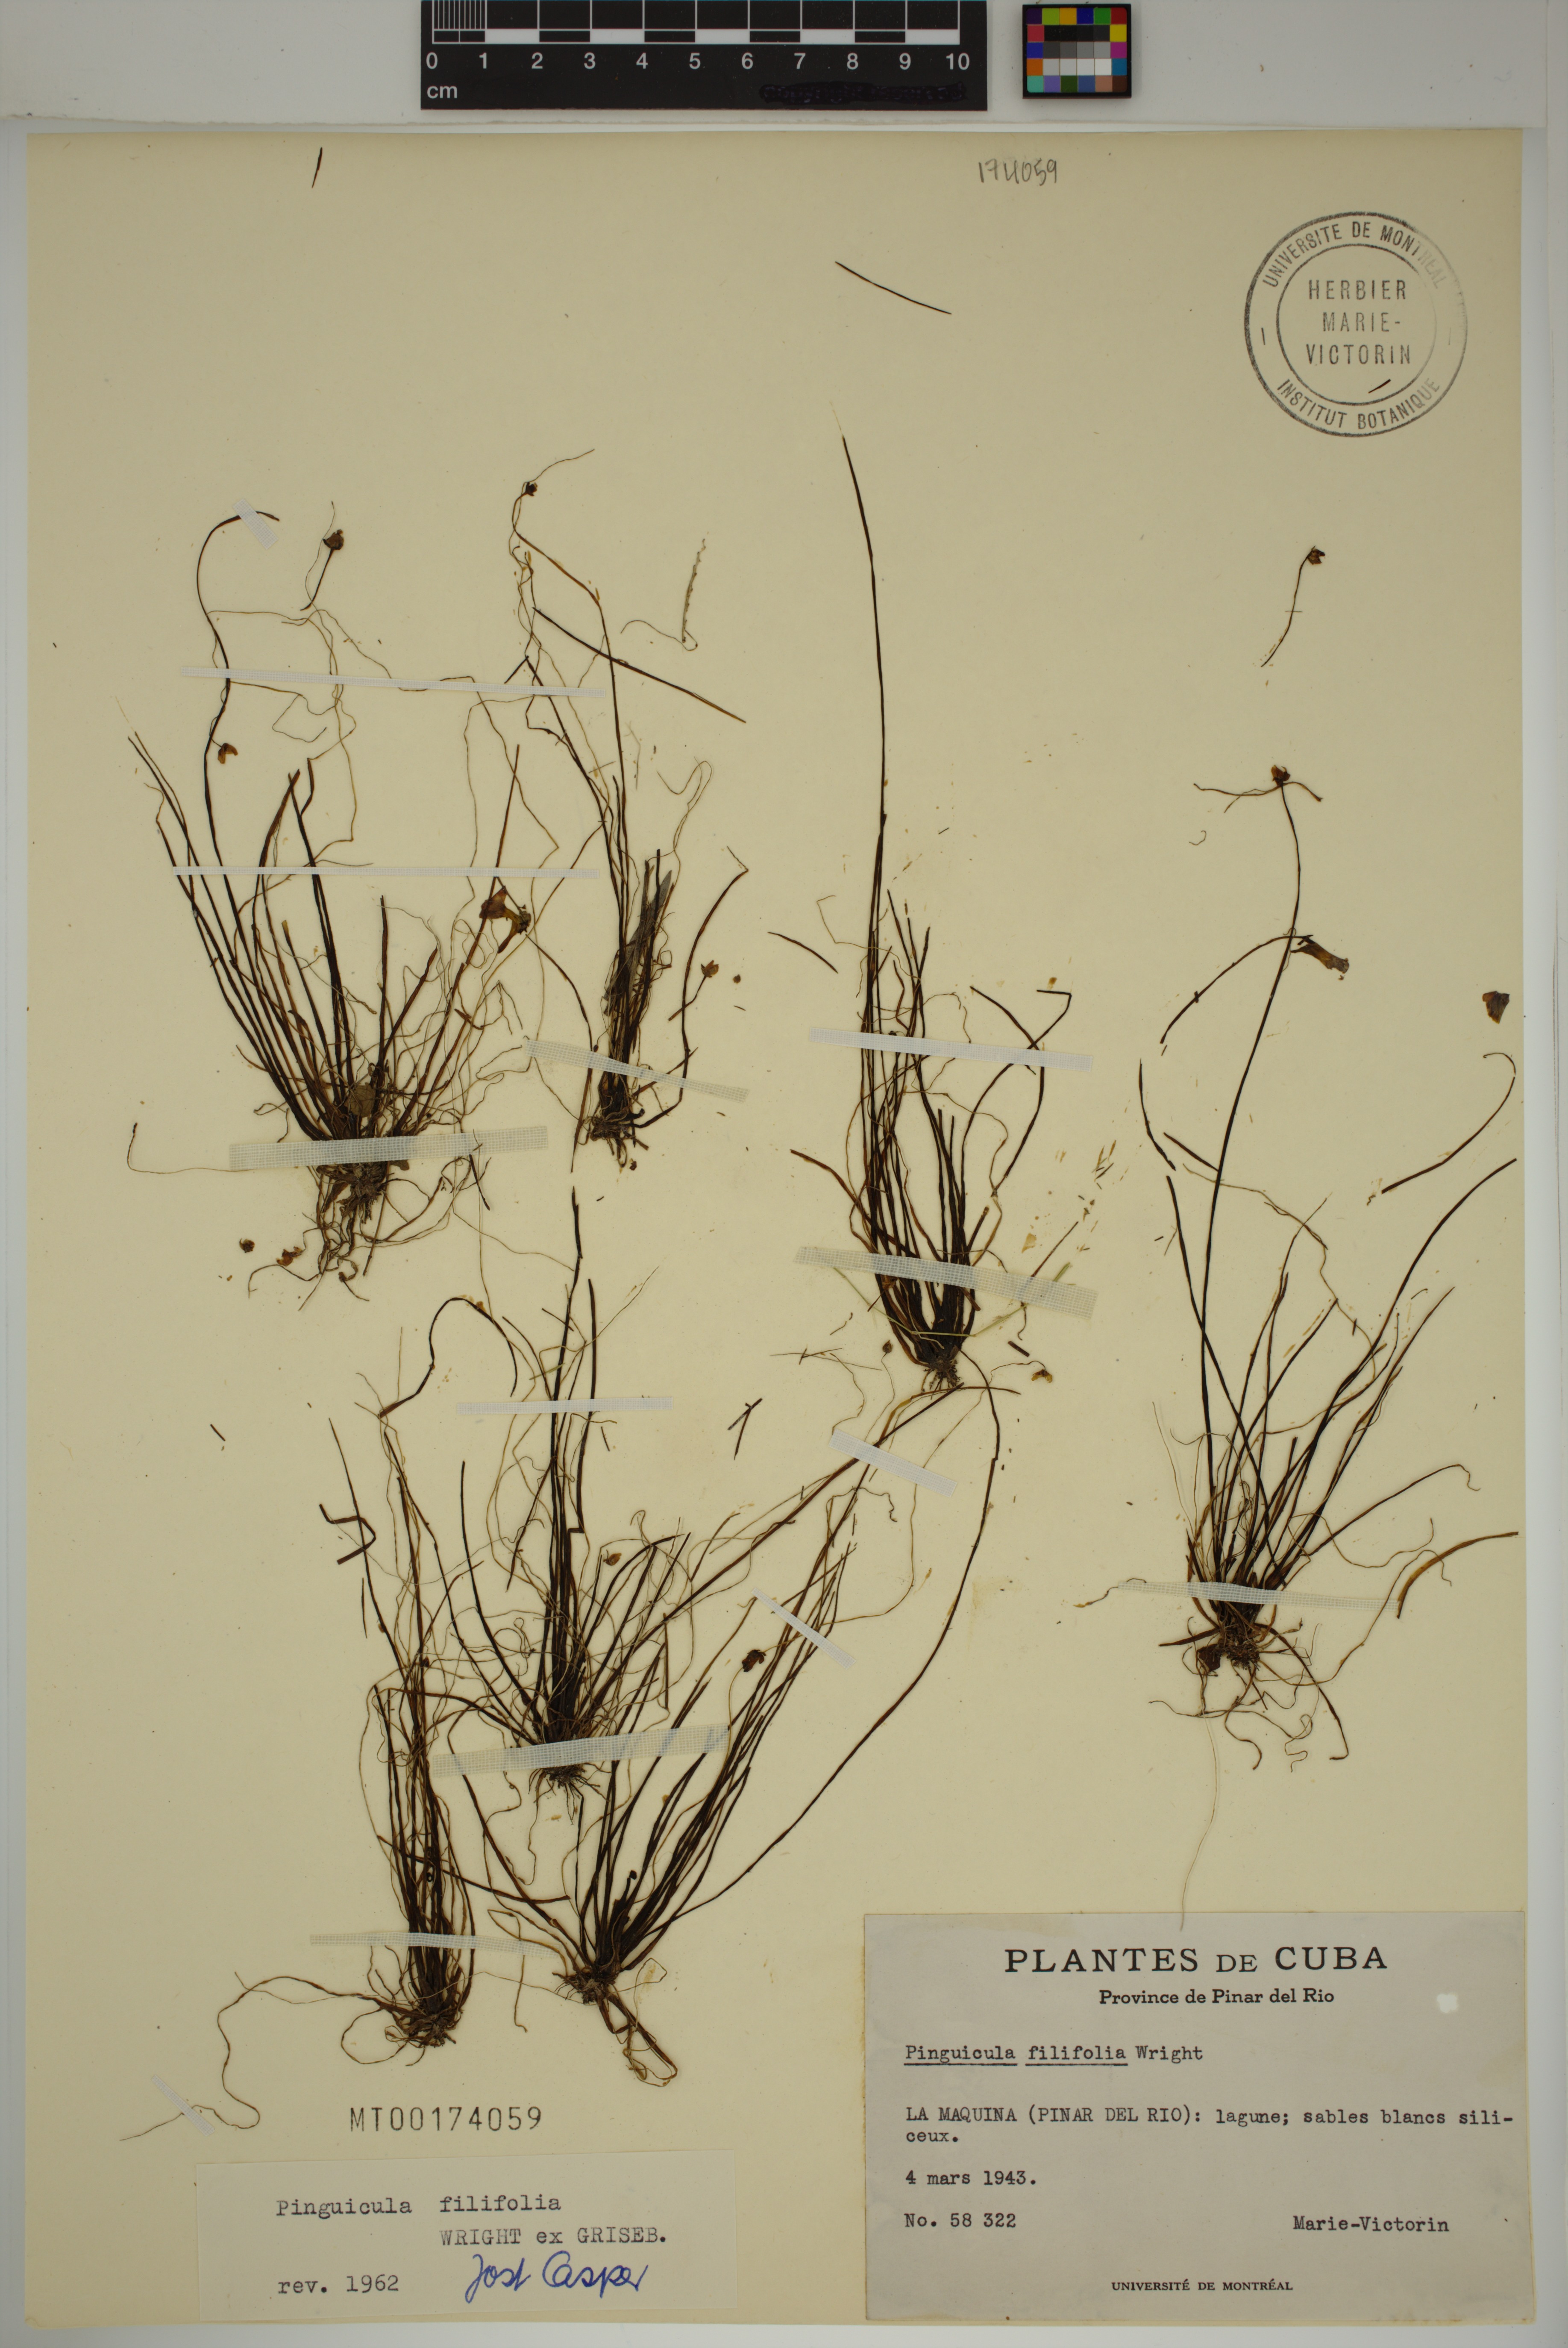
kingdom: Plantae
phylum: Tracheophyta
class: Magnoliopsida
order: Lamiales
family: Lentibulariaceae
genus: Pinguicula
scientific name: Pinguicula filifolia
